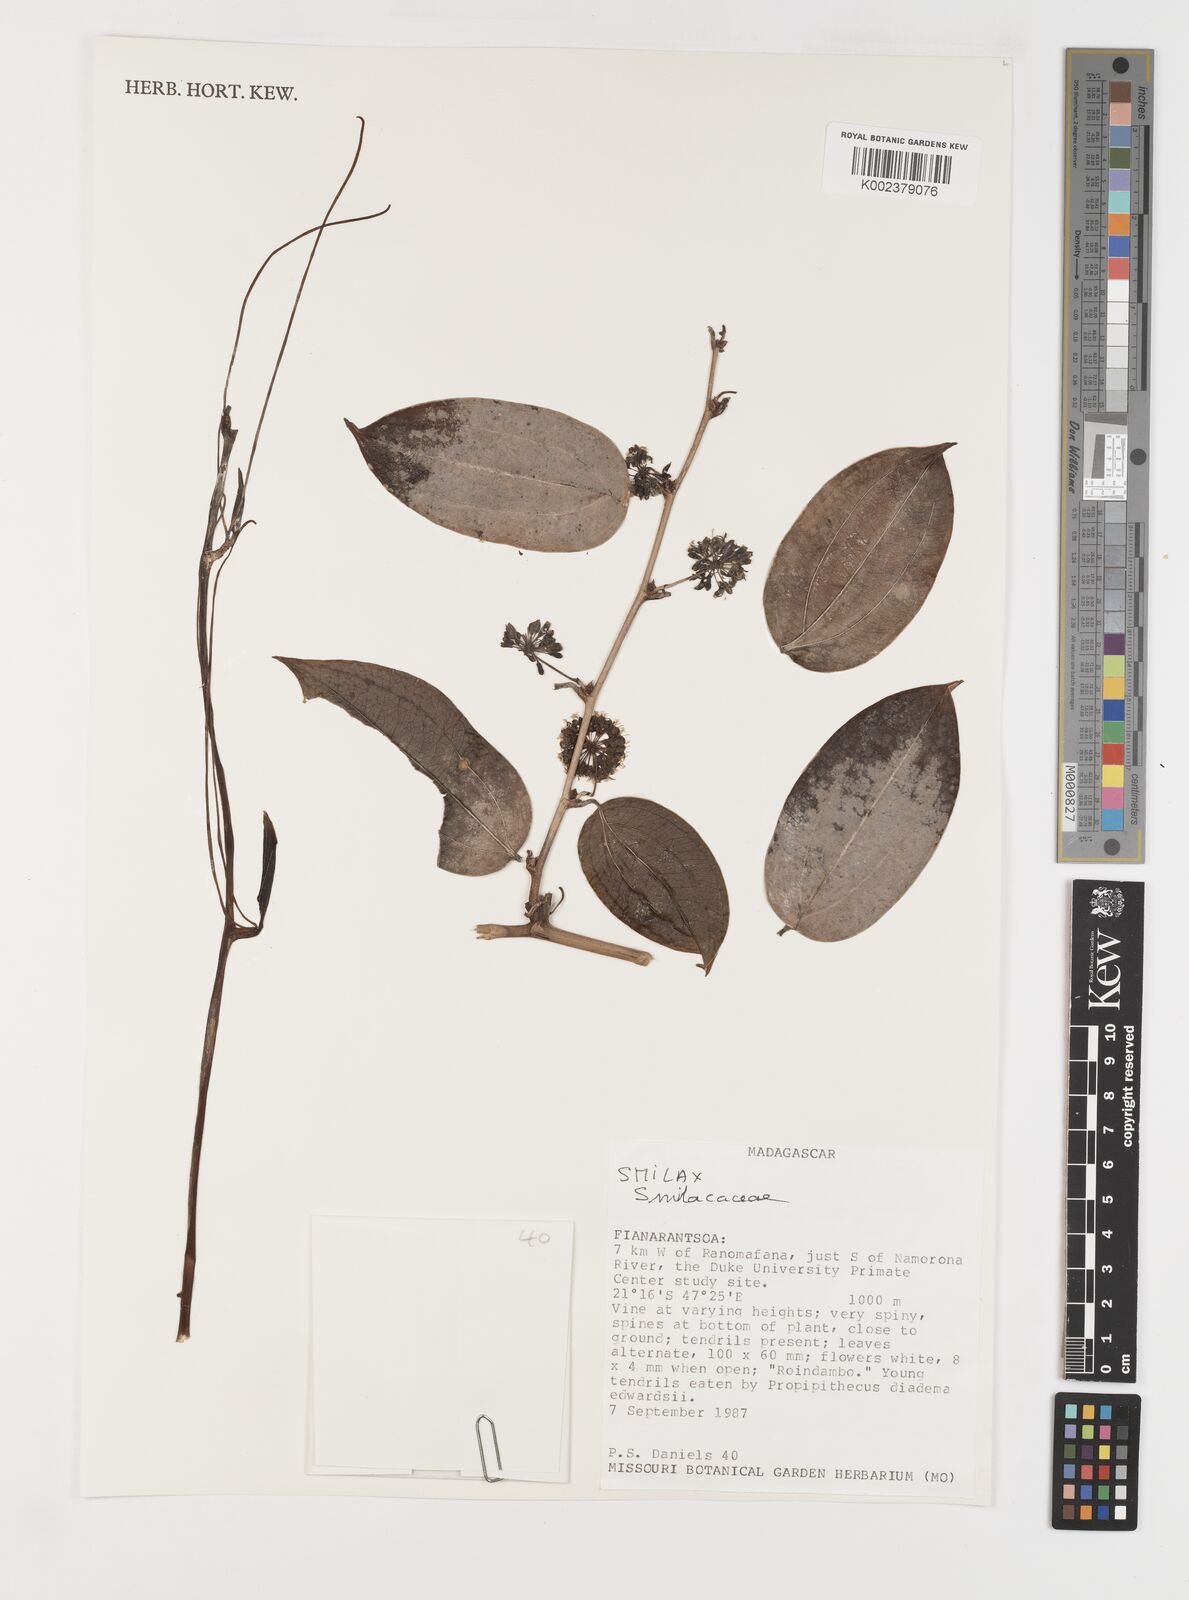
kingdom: Plantae
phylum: Tracheophyta
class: Liliopsida
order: Liliales
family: Smilacaceae
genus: Smilax
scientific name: Smilax anceps
